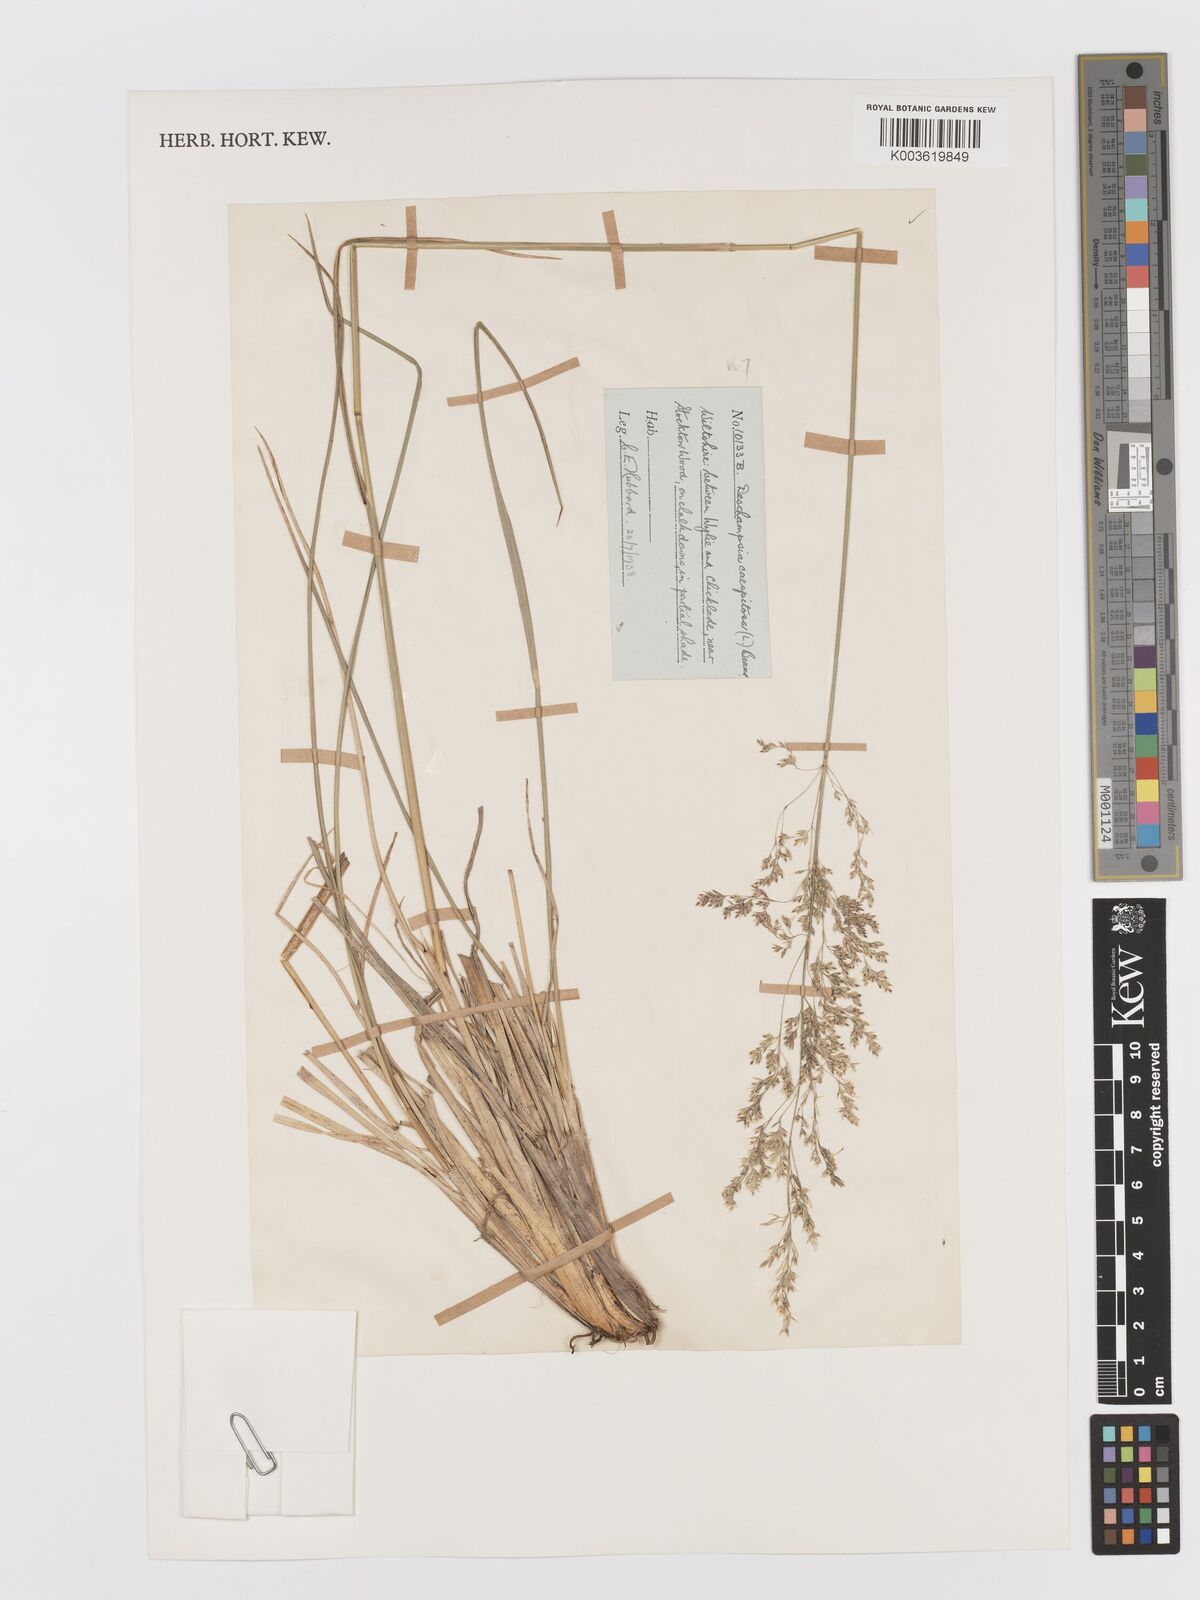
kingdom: Plantae
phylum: Tracheophyta
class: Liliopsida
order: Poales
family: Poaceae
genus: Deschampsia
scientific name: Deschampsia cespitosa
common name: Tufted hair-grass
